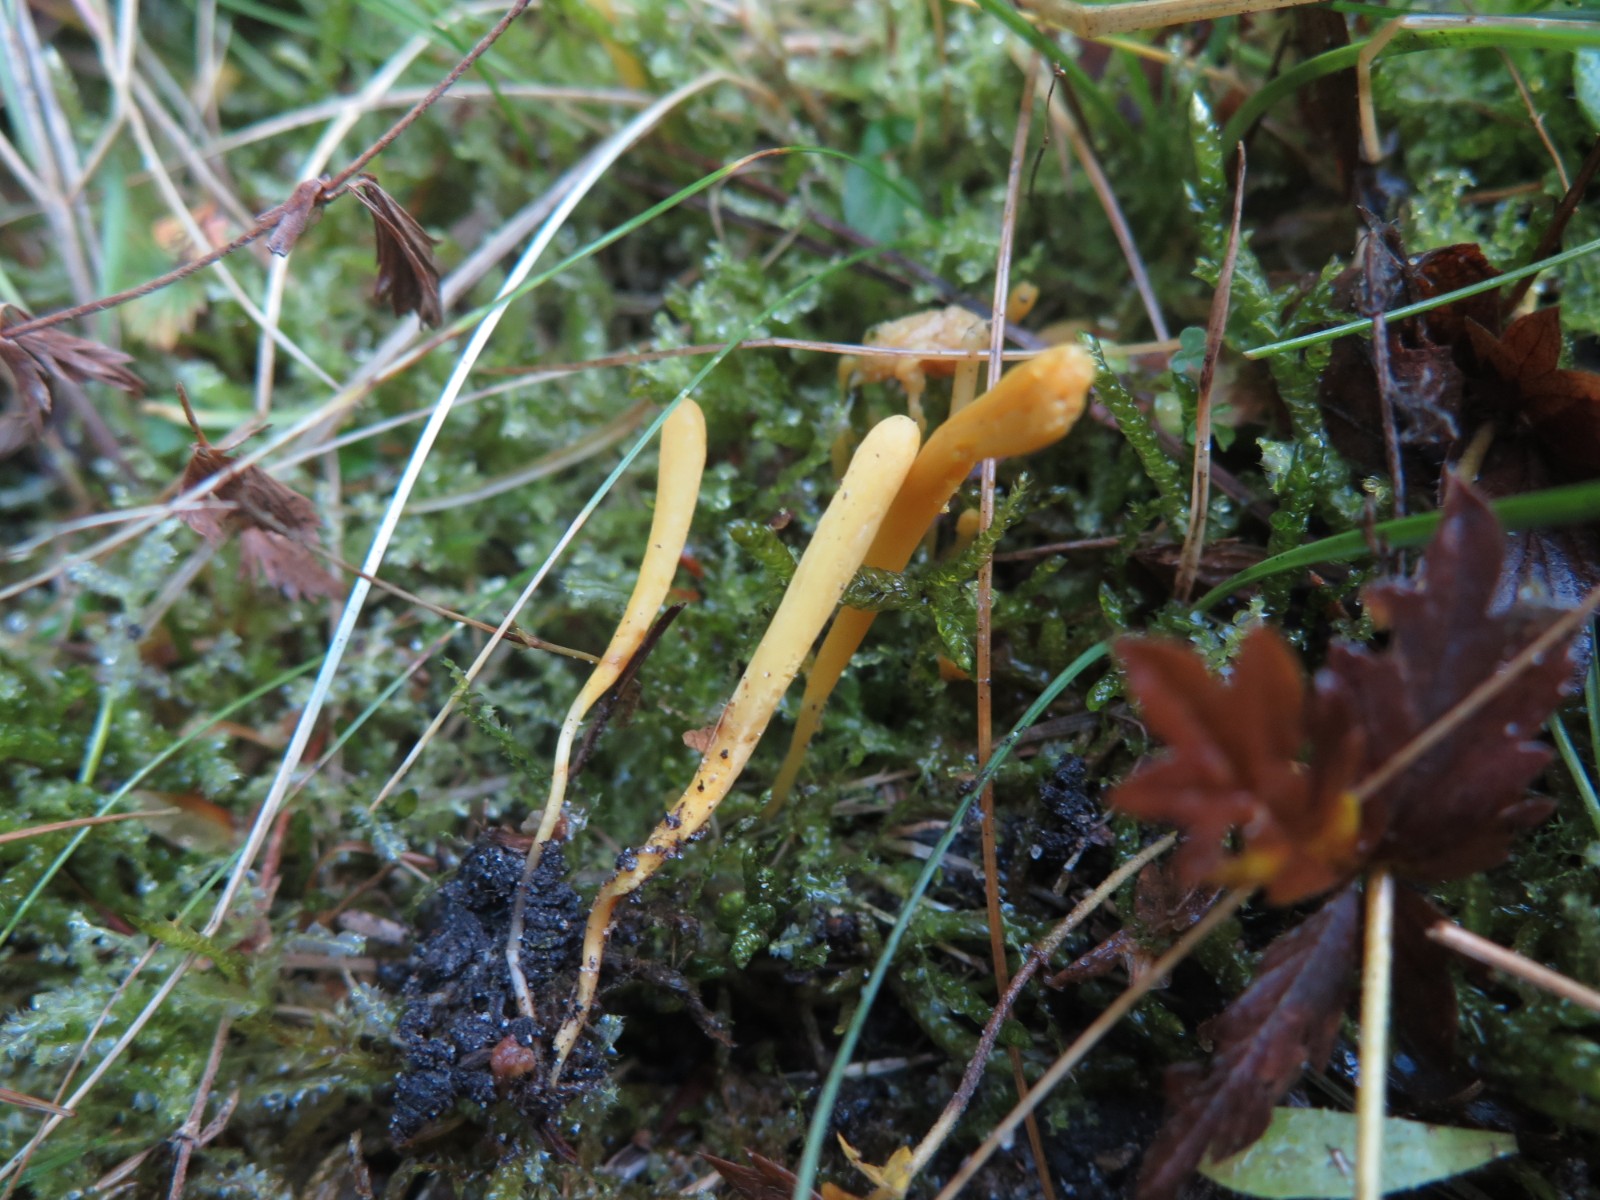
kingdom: Fungi
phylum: Basidiomycota
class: Agaricomycetes
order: Agaricales
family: Clavariaceae
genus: Clavulinopsis
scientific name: Clavulinopsis laeticolor
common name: flamme-køllesvamp
